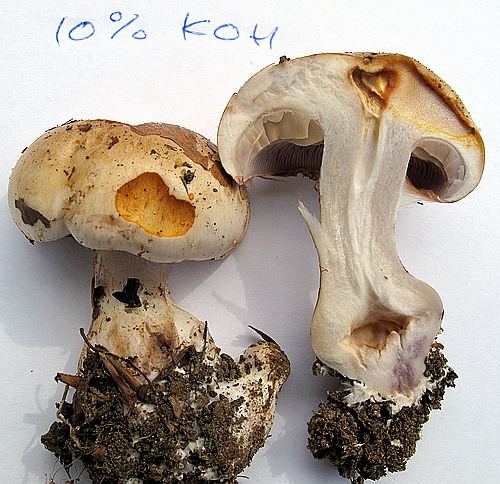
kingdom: Fungi
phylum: Basidiomycota
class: Agaricomycetes
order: Agaricales
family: Cortinariaceae
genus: Cortinarius
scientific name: Cortinarius largus
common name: violetrandet slørhat
